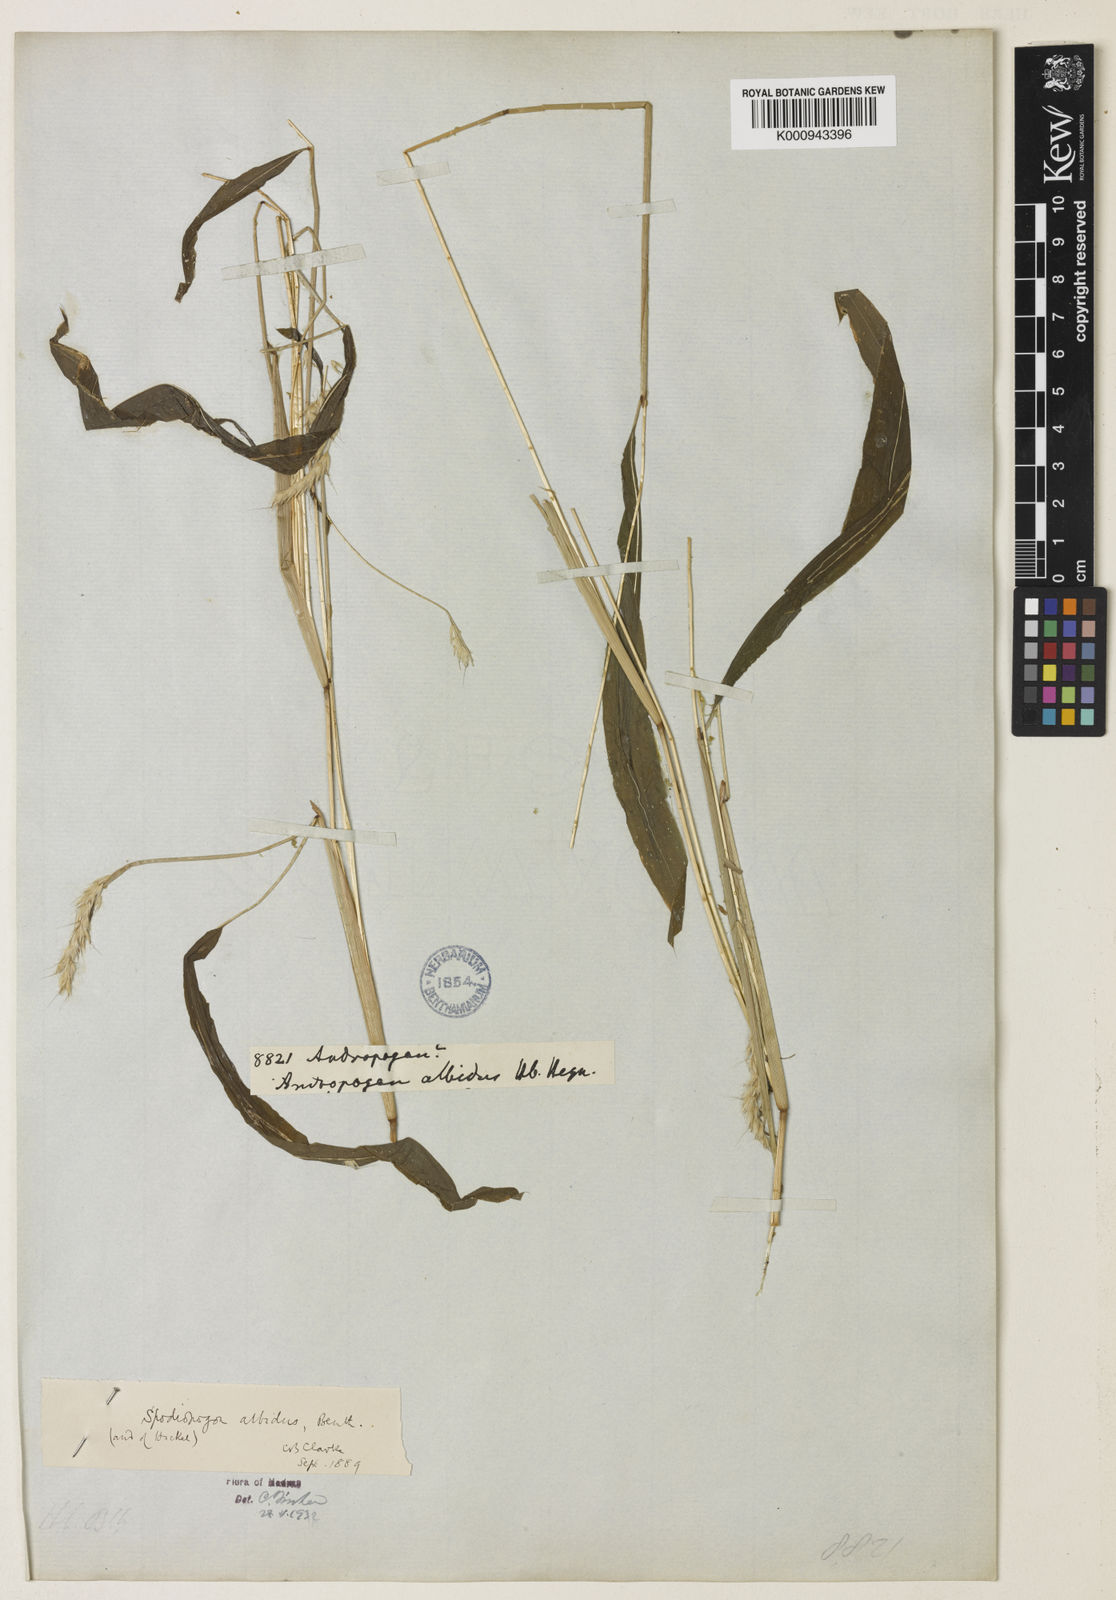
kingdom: Plantae
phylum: Tracheophyta
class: Liliopsida
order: Poales
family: Poaceae
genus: Spodiopogon
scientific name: Spodiopogon rhizophorus
